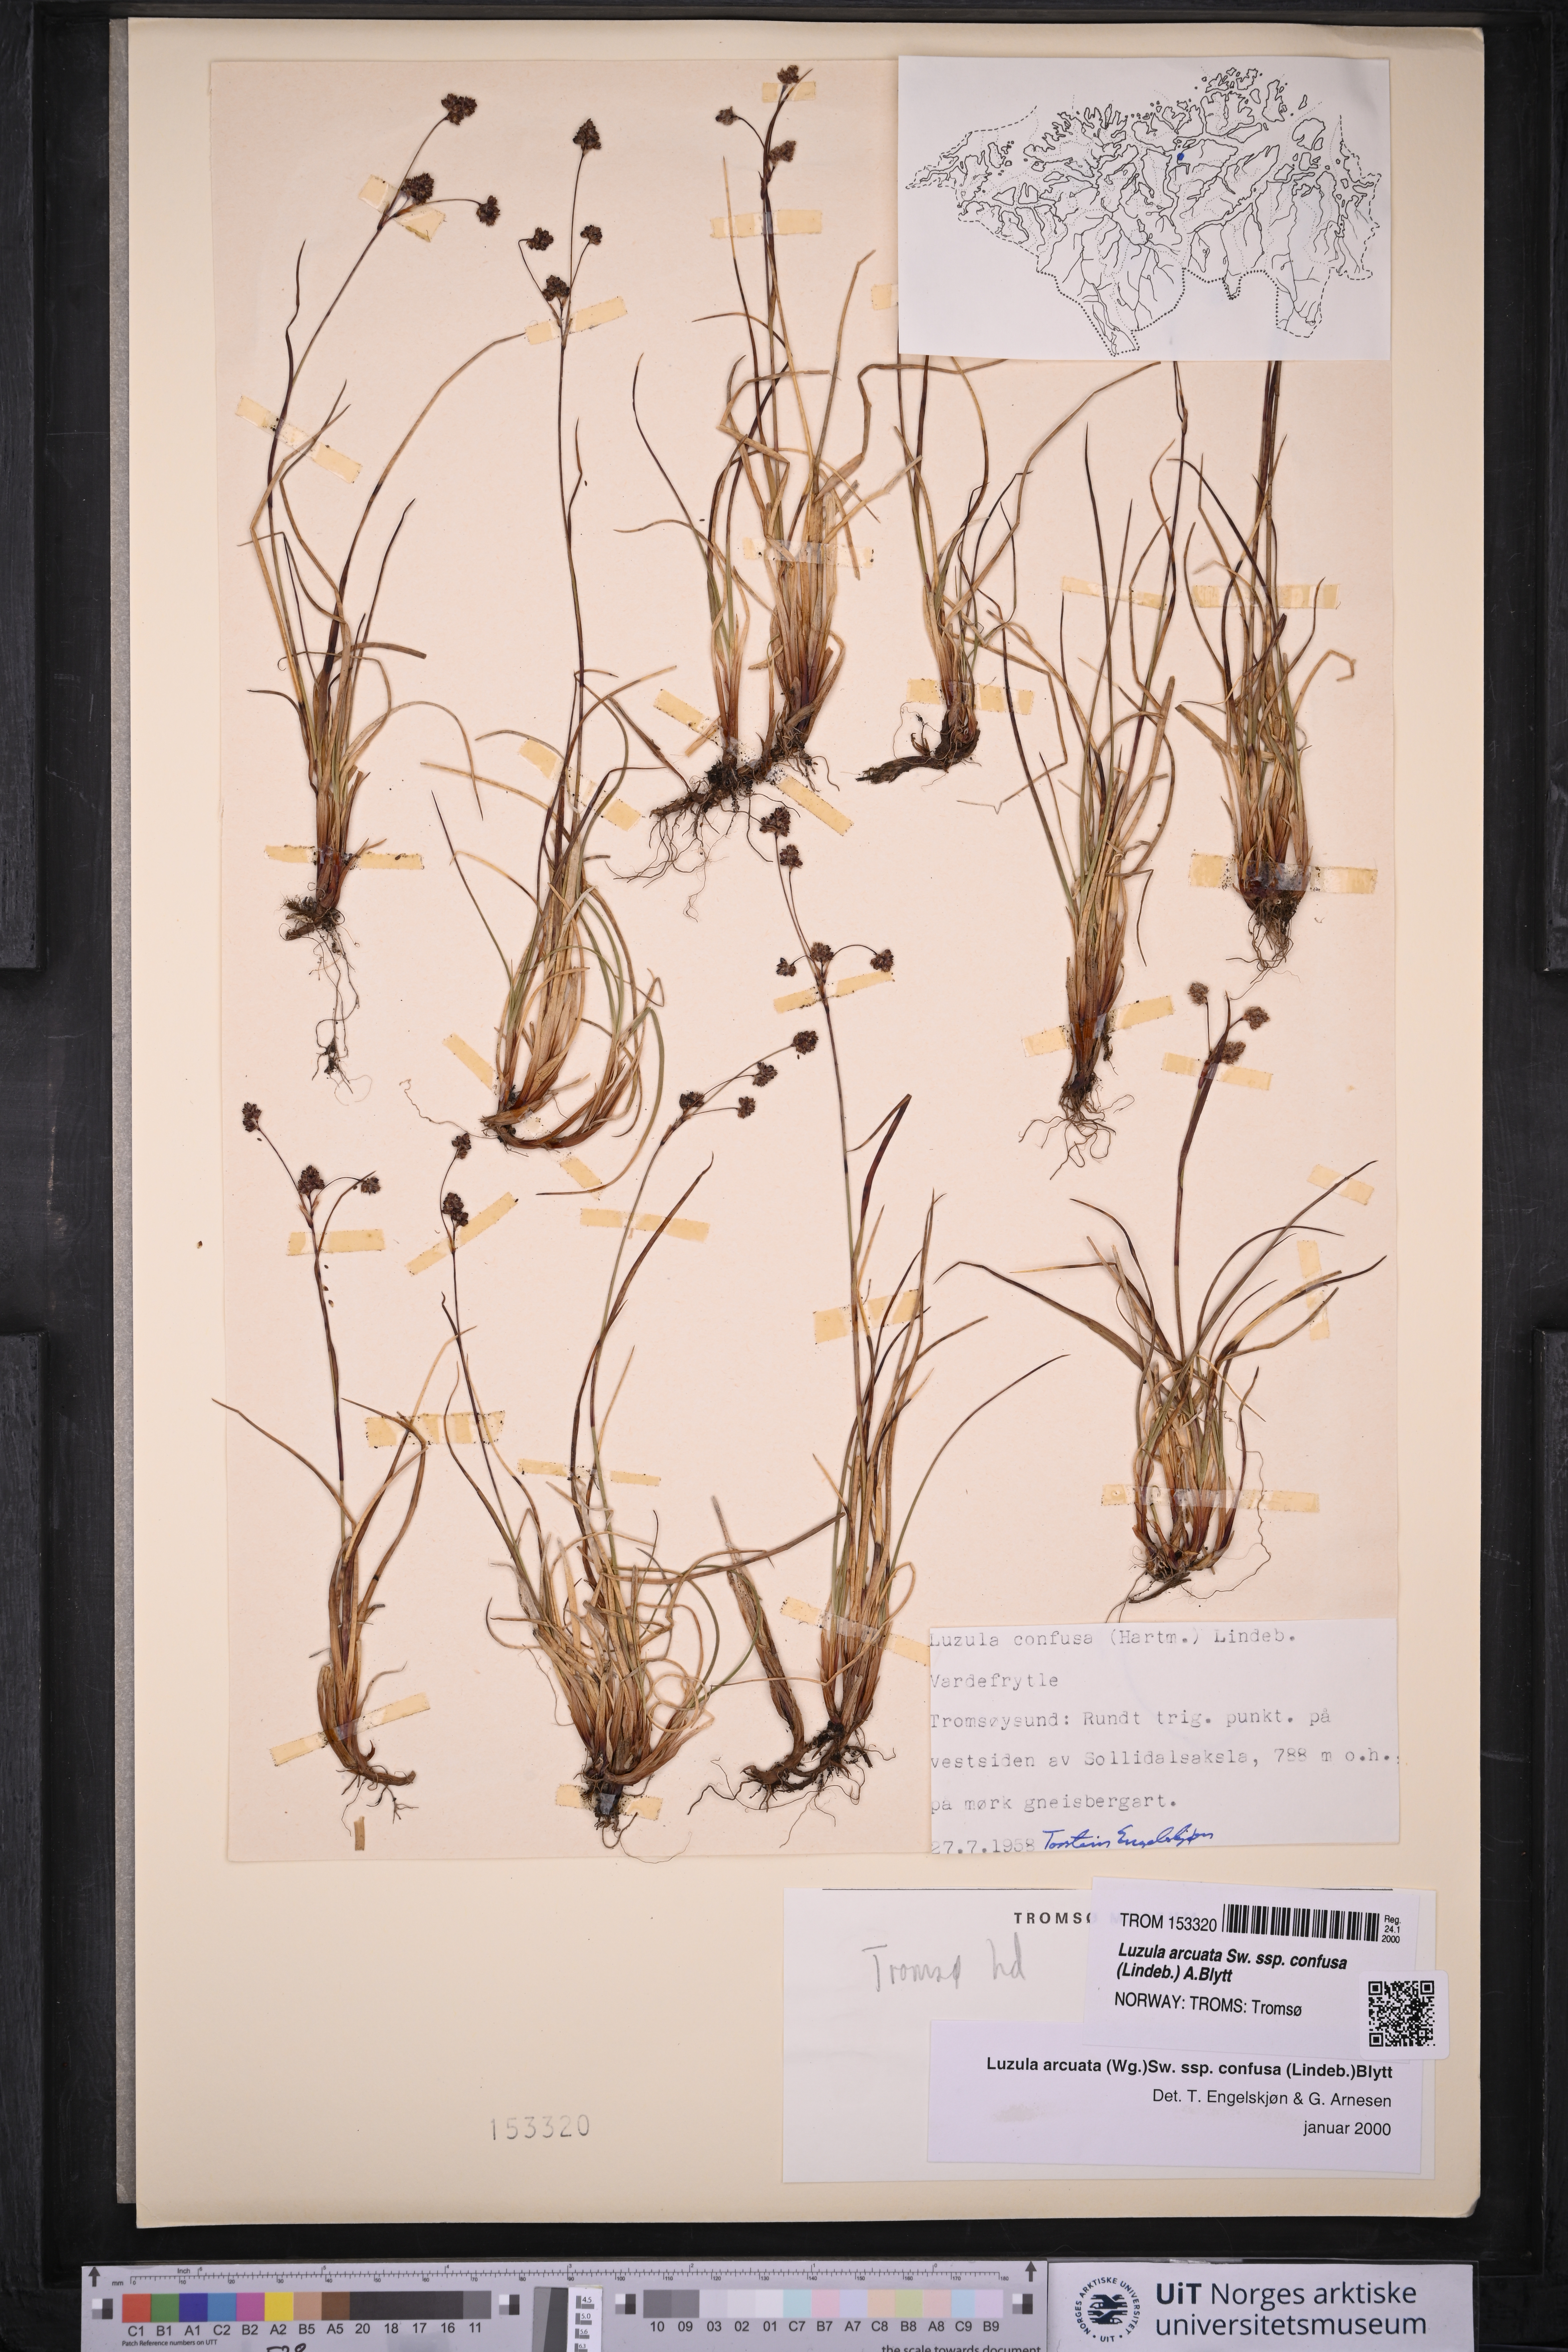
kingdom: Plantae
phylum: Tracheophyta
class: Liliopsida
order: Poales
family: Juncaceae
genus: Luzula
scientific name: Luzula confusa
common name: Northern wood rush
